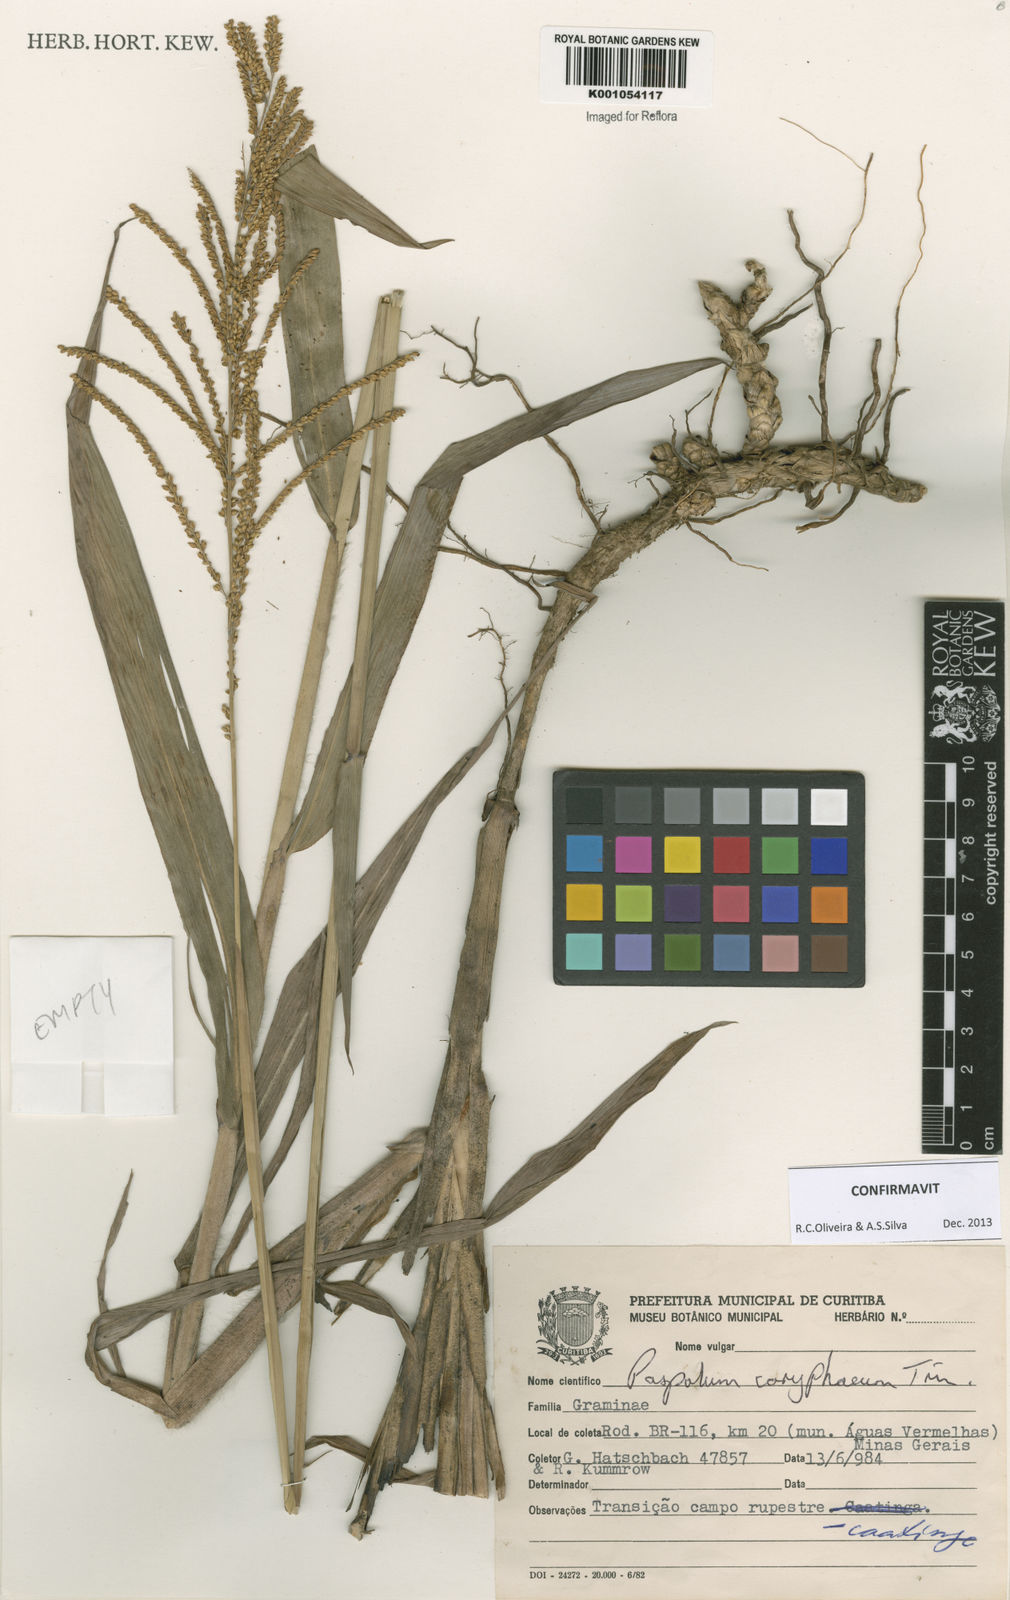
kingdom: Plantae
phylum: Tracheophyta
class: Liliopsida
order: Poales
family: Poaceae
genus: Paspalum
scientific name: Paspalum coryphaeum
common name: Emperor crowngrass
